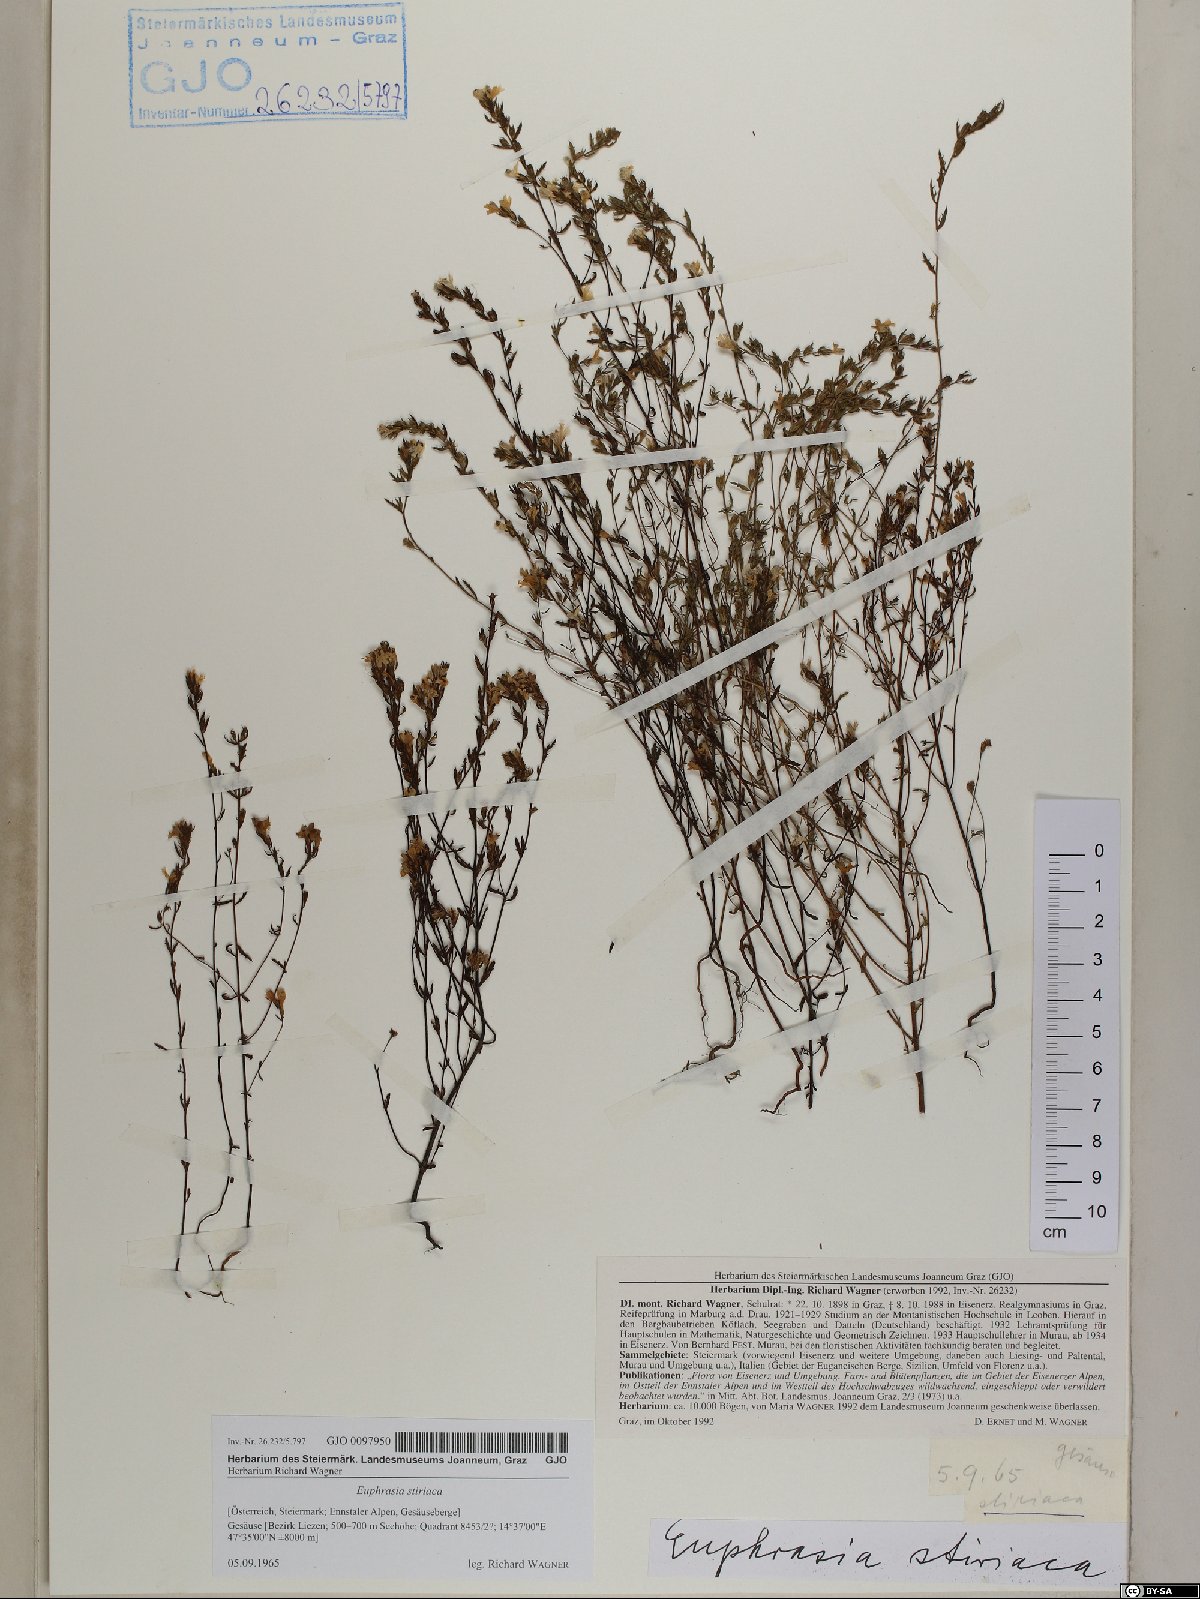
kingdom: Plantae
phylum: Tracheophyta
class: Magnoliopsida
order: Lamiales
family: Orobanchaceae
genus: Euphrasia
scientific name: Euphrasia cuspidata
